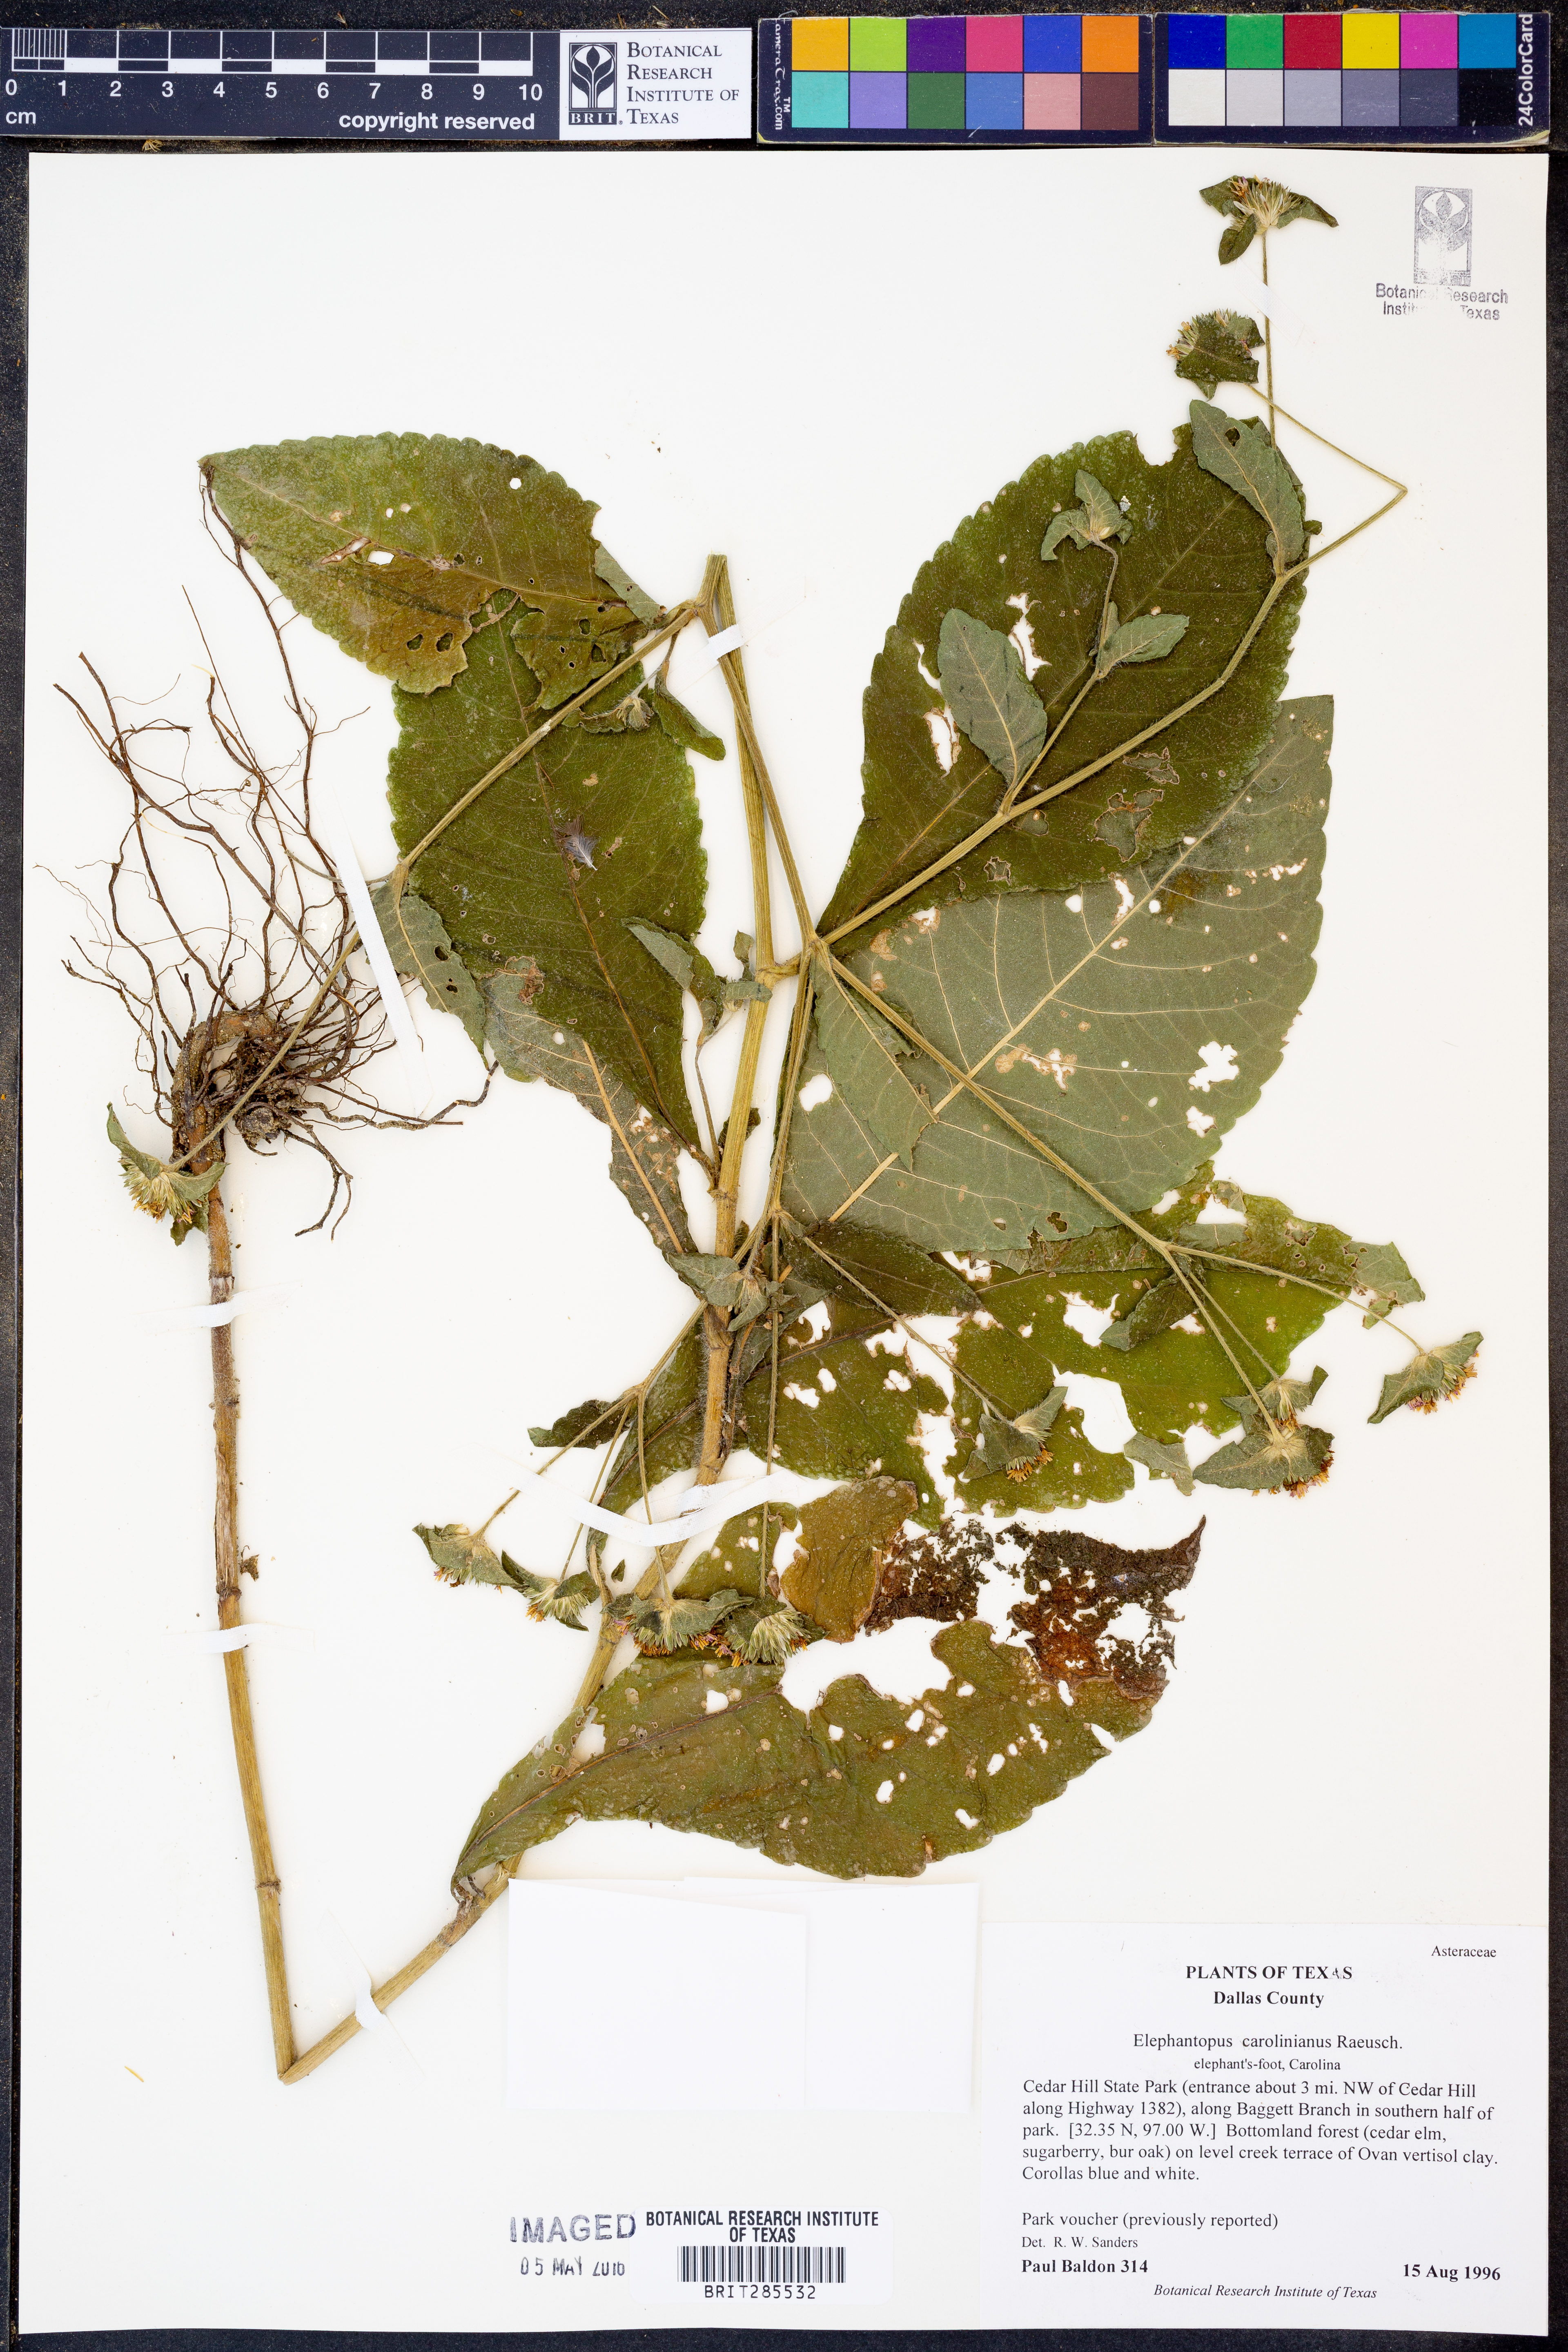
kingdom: Plantae
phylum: Tracheophyta
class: Magnoliopsida
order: Asterales
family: Asteraceae
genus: Elephantopus
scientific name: Elephantopus carolinianus
